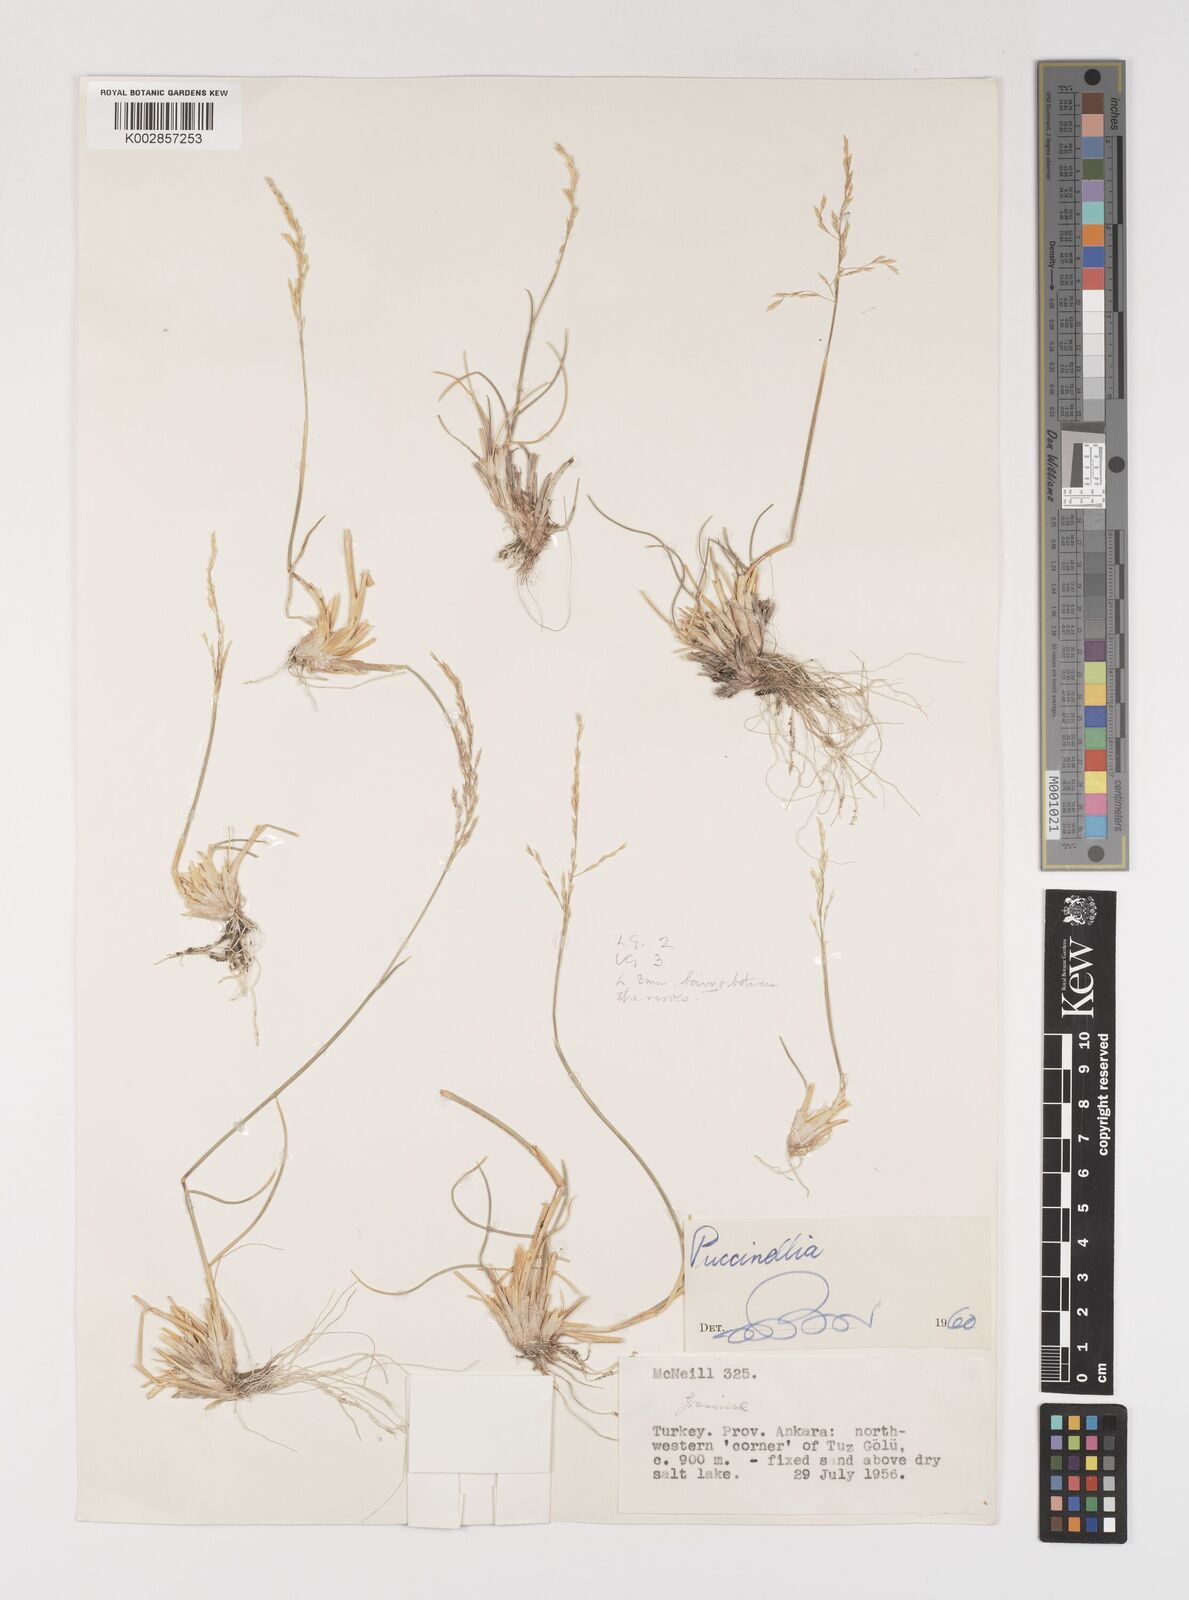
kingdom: Plantae
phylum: Tracheophyta
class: Liliopsida
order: Poales
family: Poaceae
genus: Puccinellia
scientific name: Puccinellia koeieana
